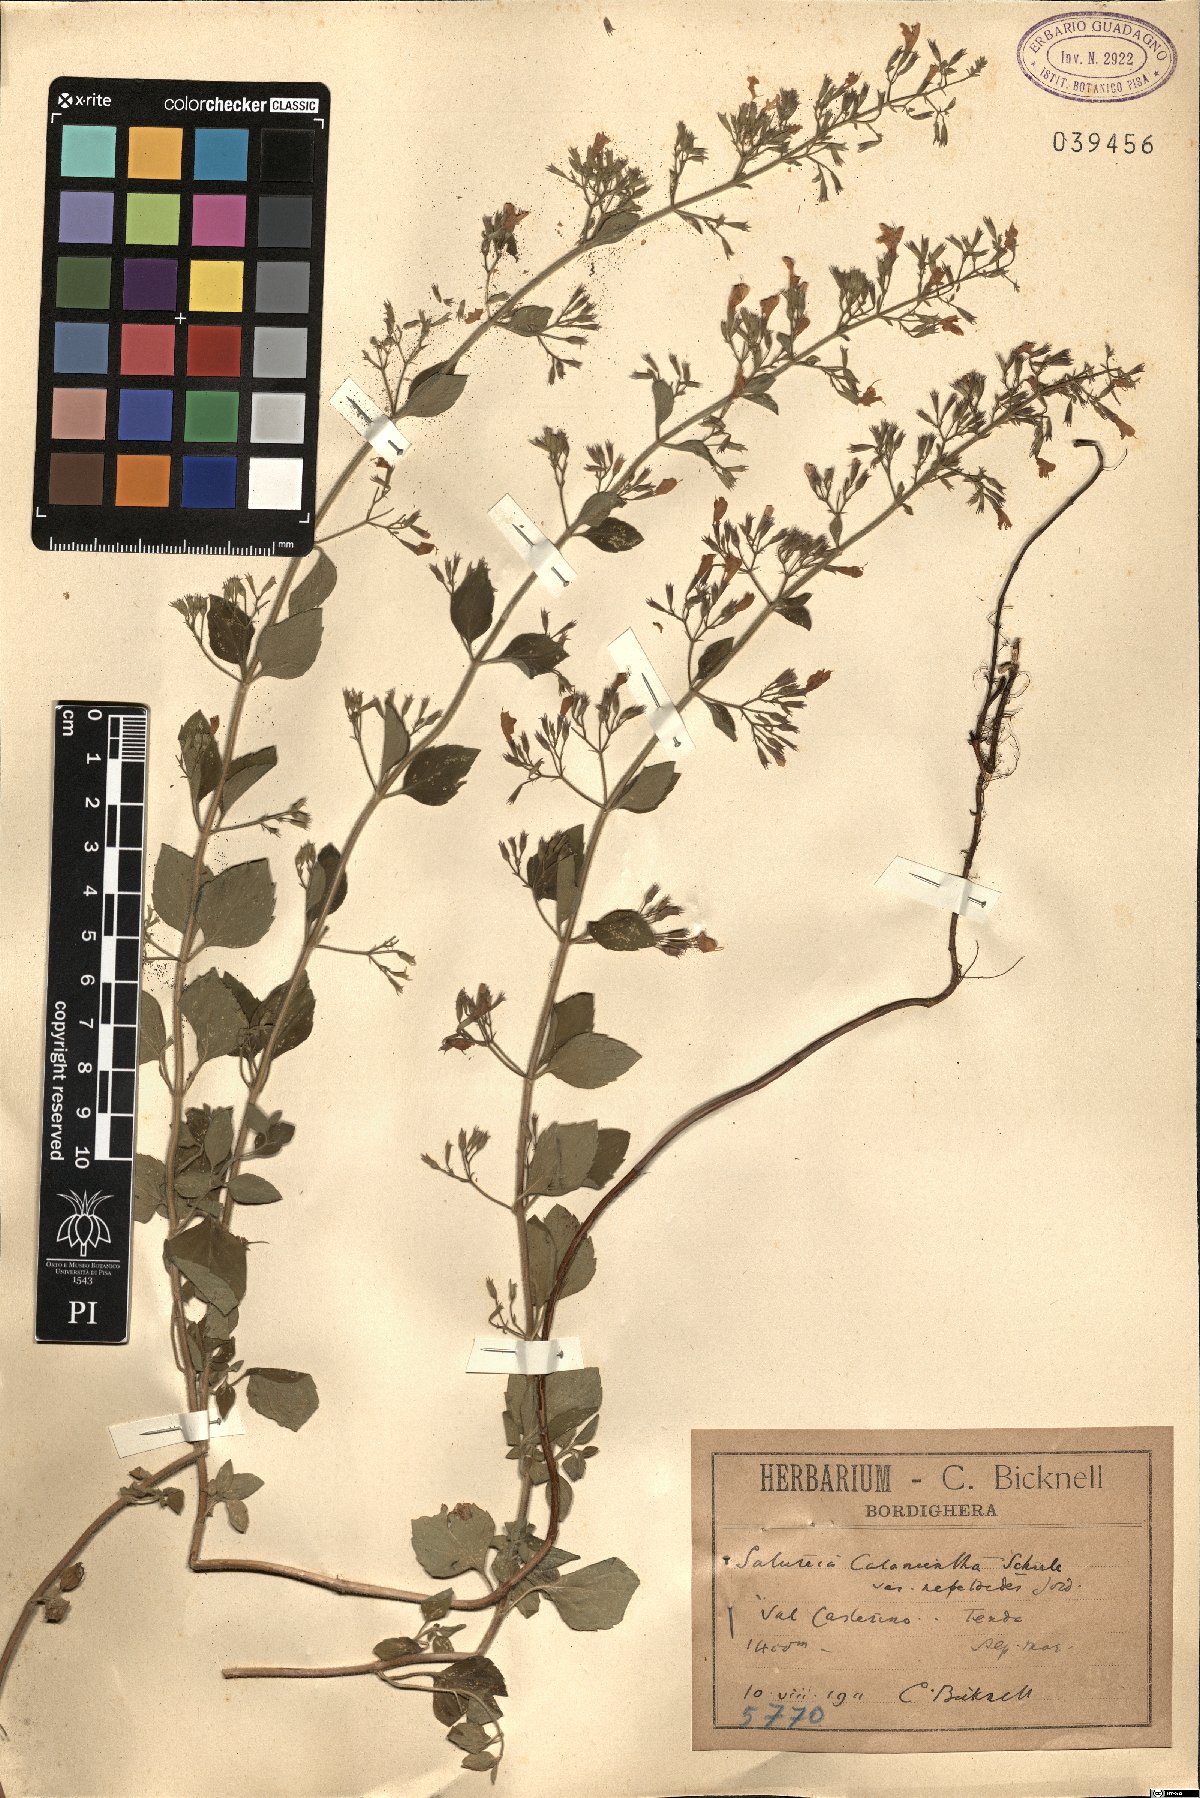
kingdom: Plantae
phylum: Tracheophyta
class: Magnoliopsida
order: Lamiales
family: Lamiaceae
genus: Clinopodium
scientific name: Clinopodium nepeta
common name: Lesser calamint
